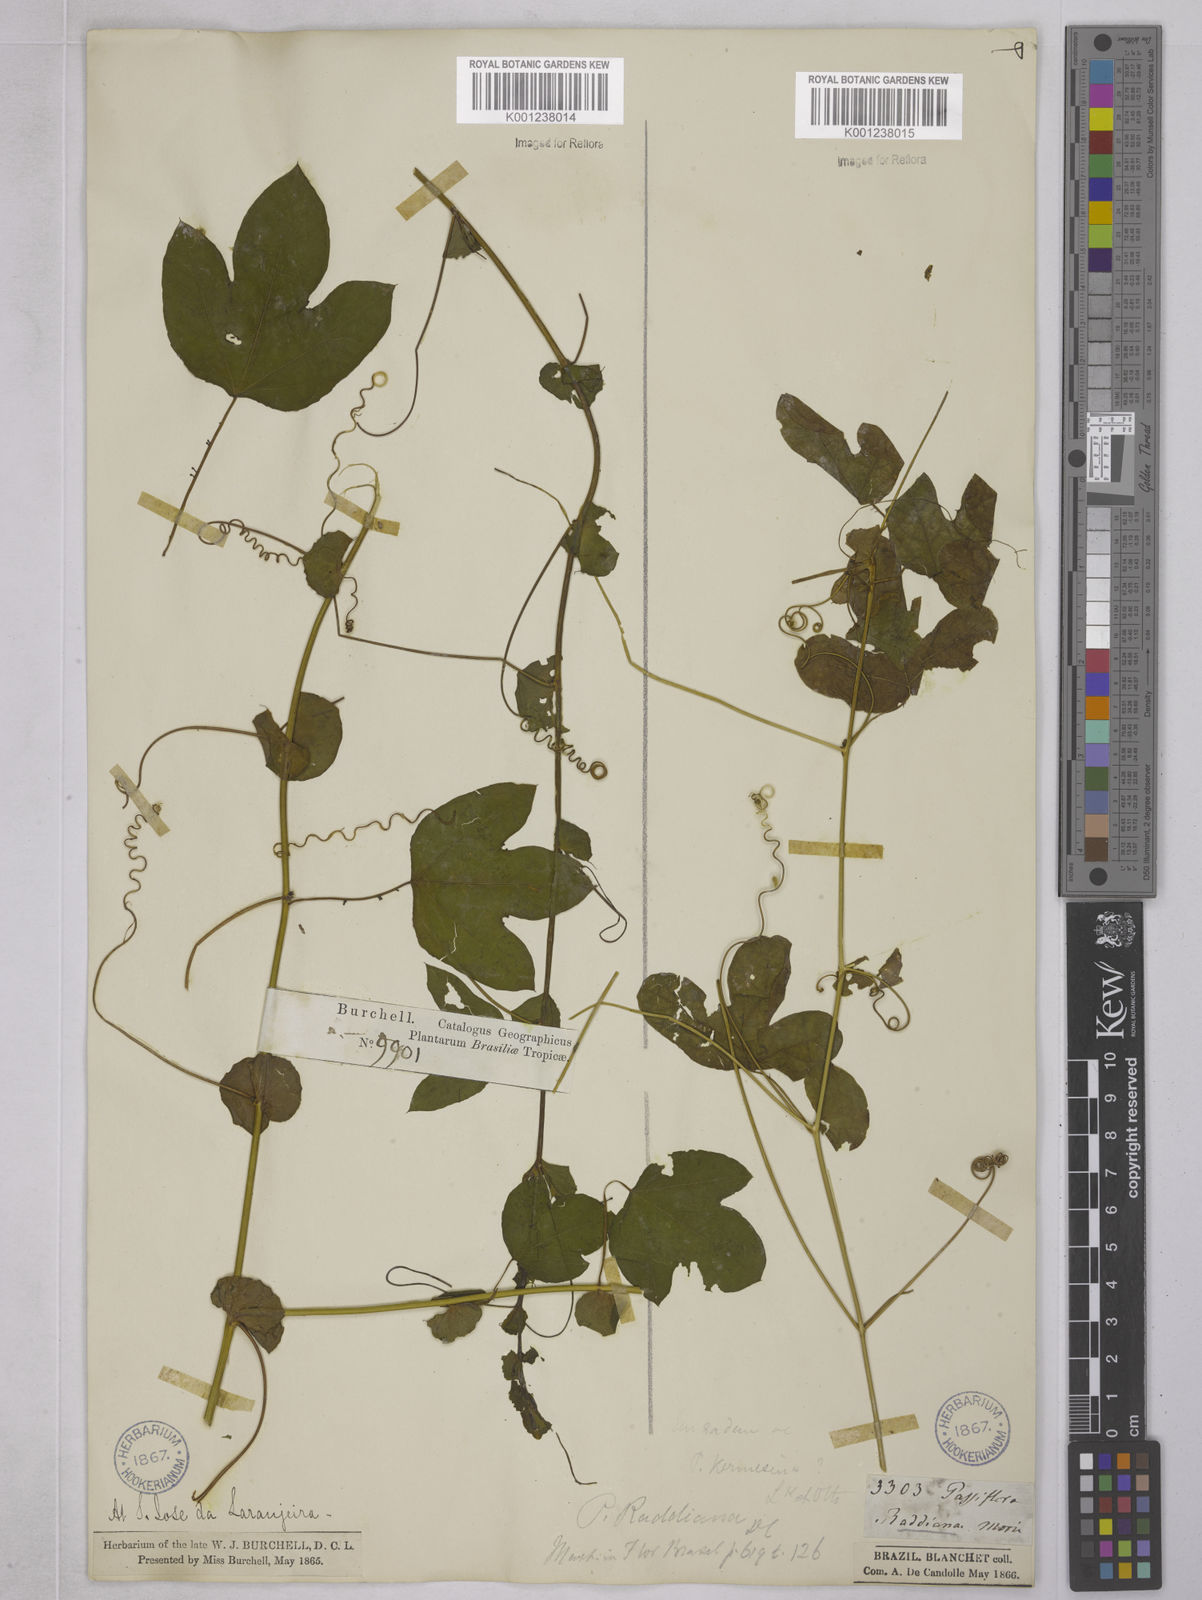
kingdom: Plantae
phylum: Tracheophyta
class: Magnoliopsida
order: Malpighiales
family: Passifloraceae
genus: Passiflora
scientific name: Passiflora kermesina
